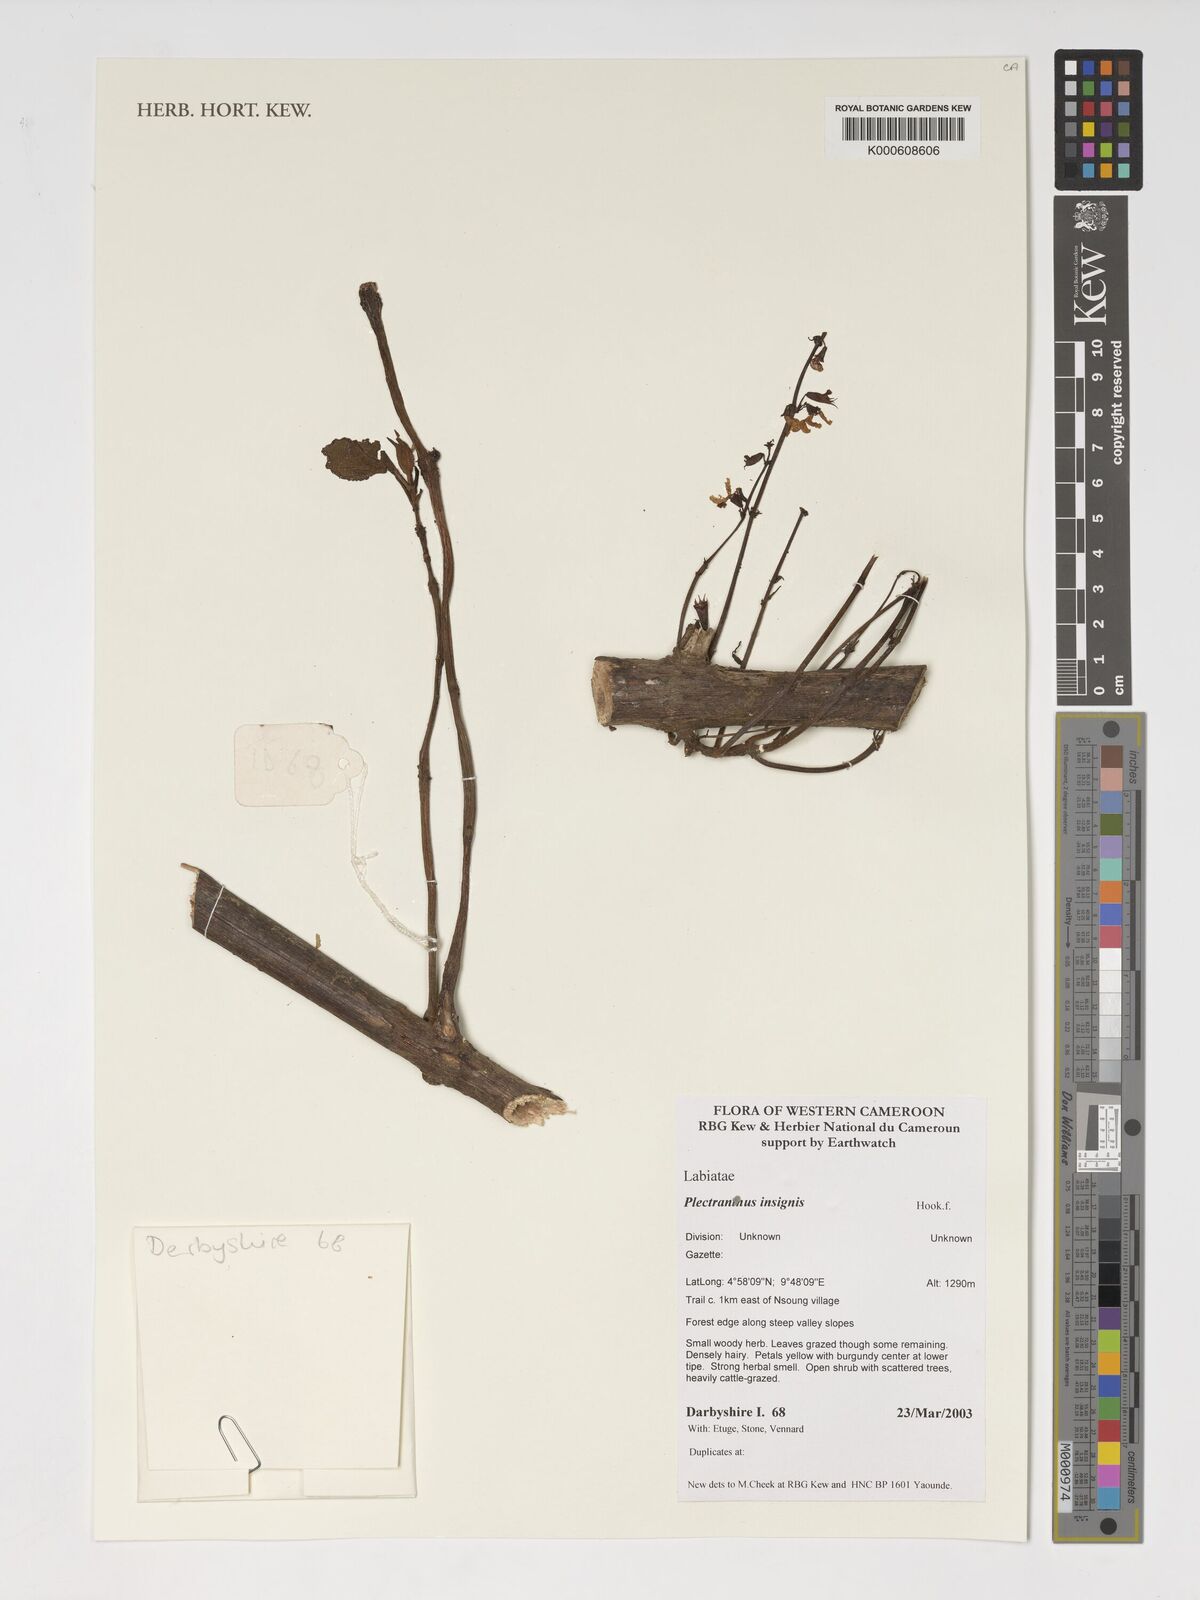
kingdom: Plantae
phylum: Tracheophyta
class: Magnoliopsida
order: Lamiales
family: Lamiaceae
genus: Coleus
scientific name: Coleus insignis
